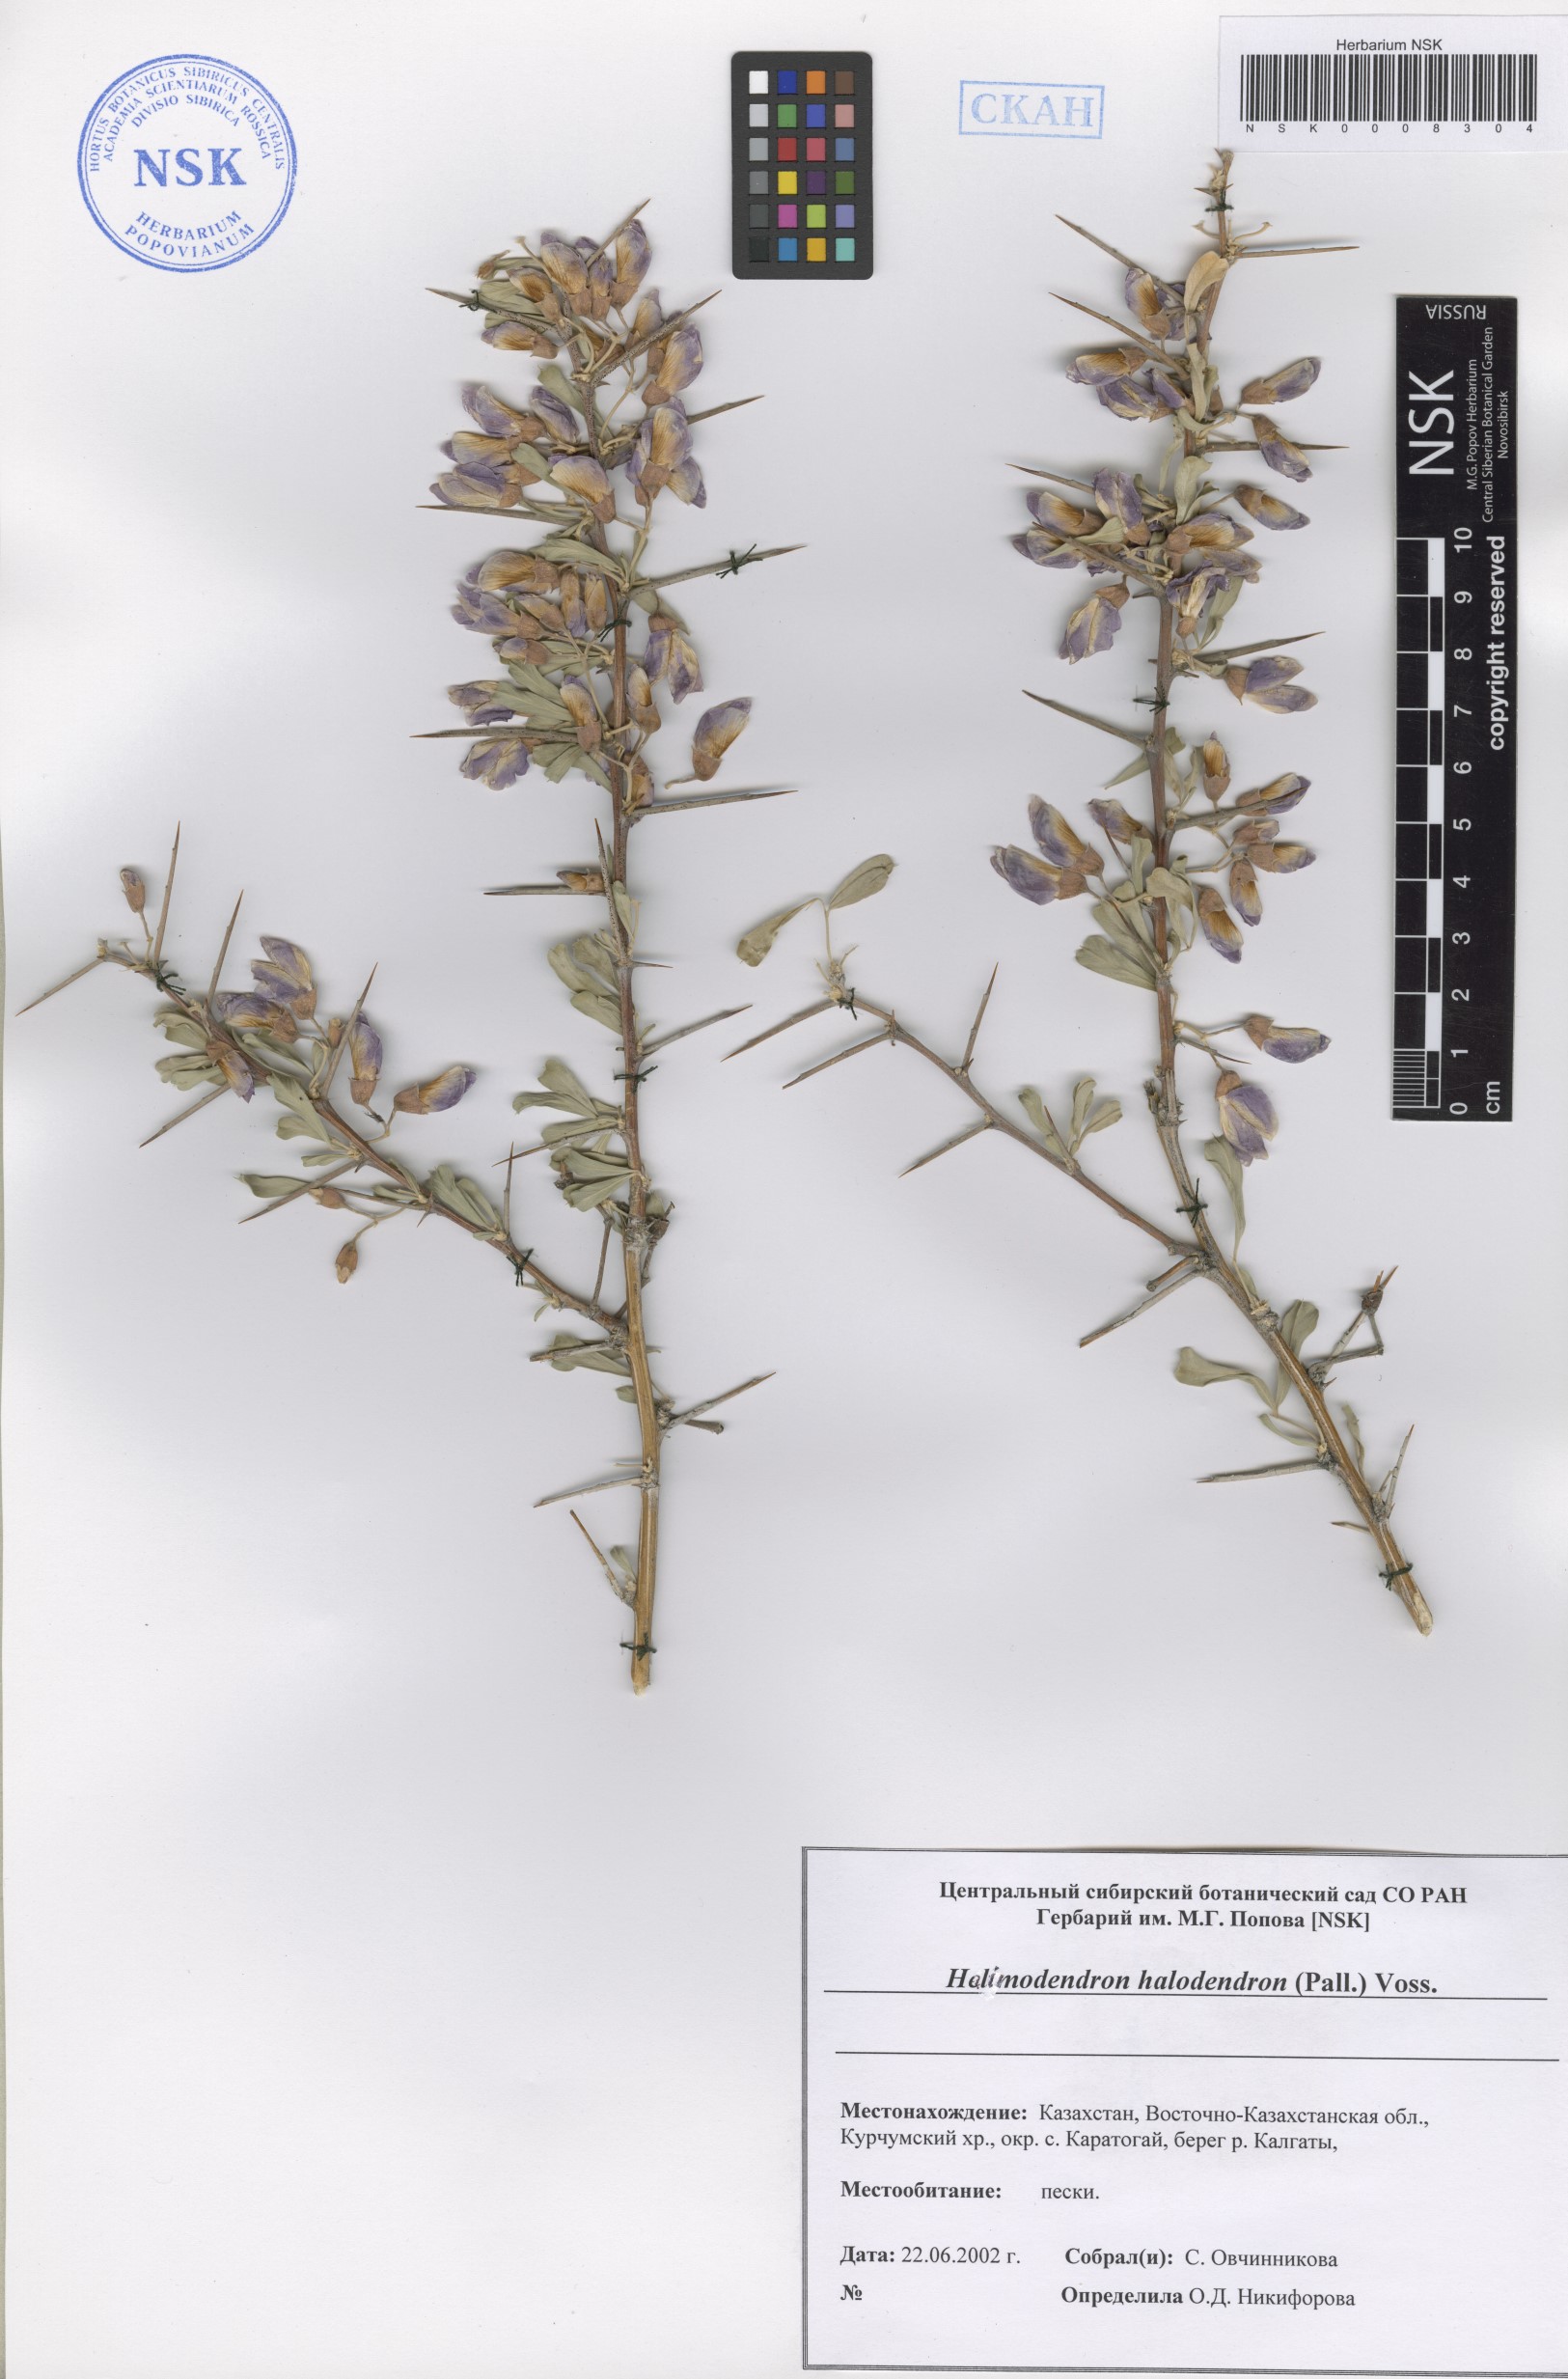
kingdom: Plantae
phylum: Tracheophyta
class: Magnoliopsida
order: Fabales
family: Fabaceae
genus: Caragana
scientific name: Caragana halodendron
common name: Siberian salt-tree
